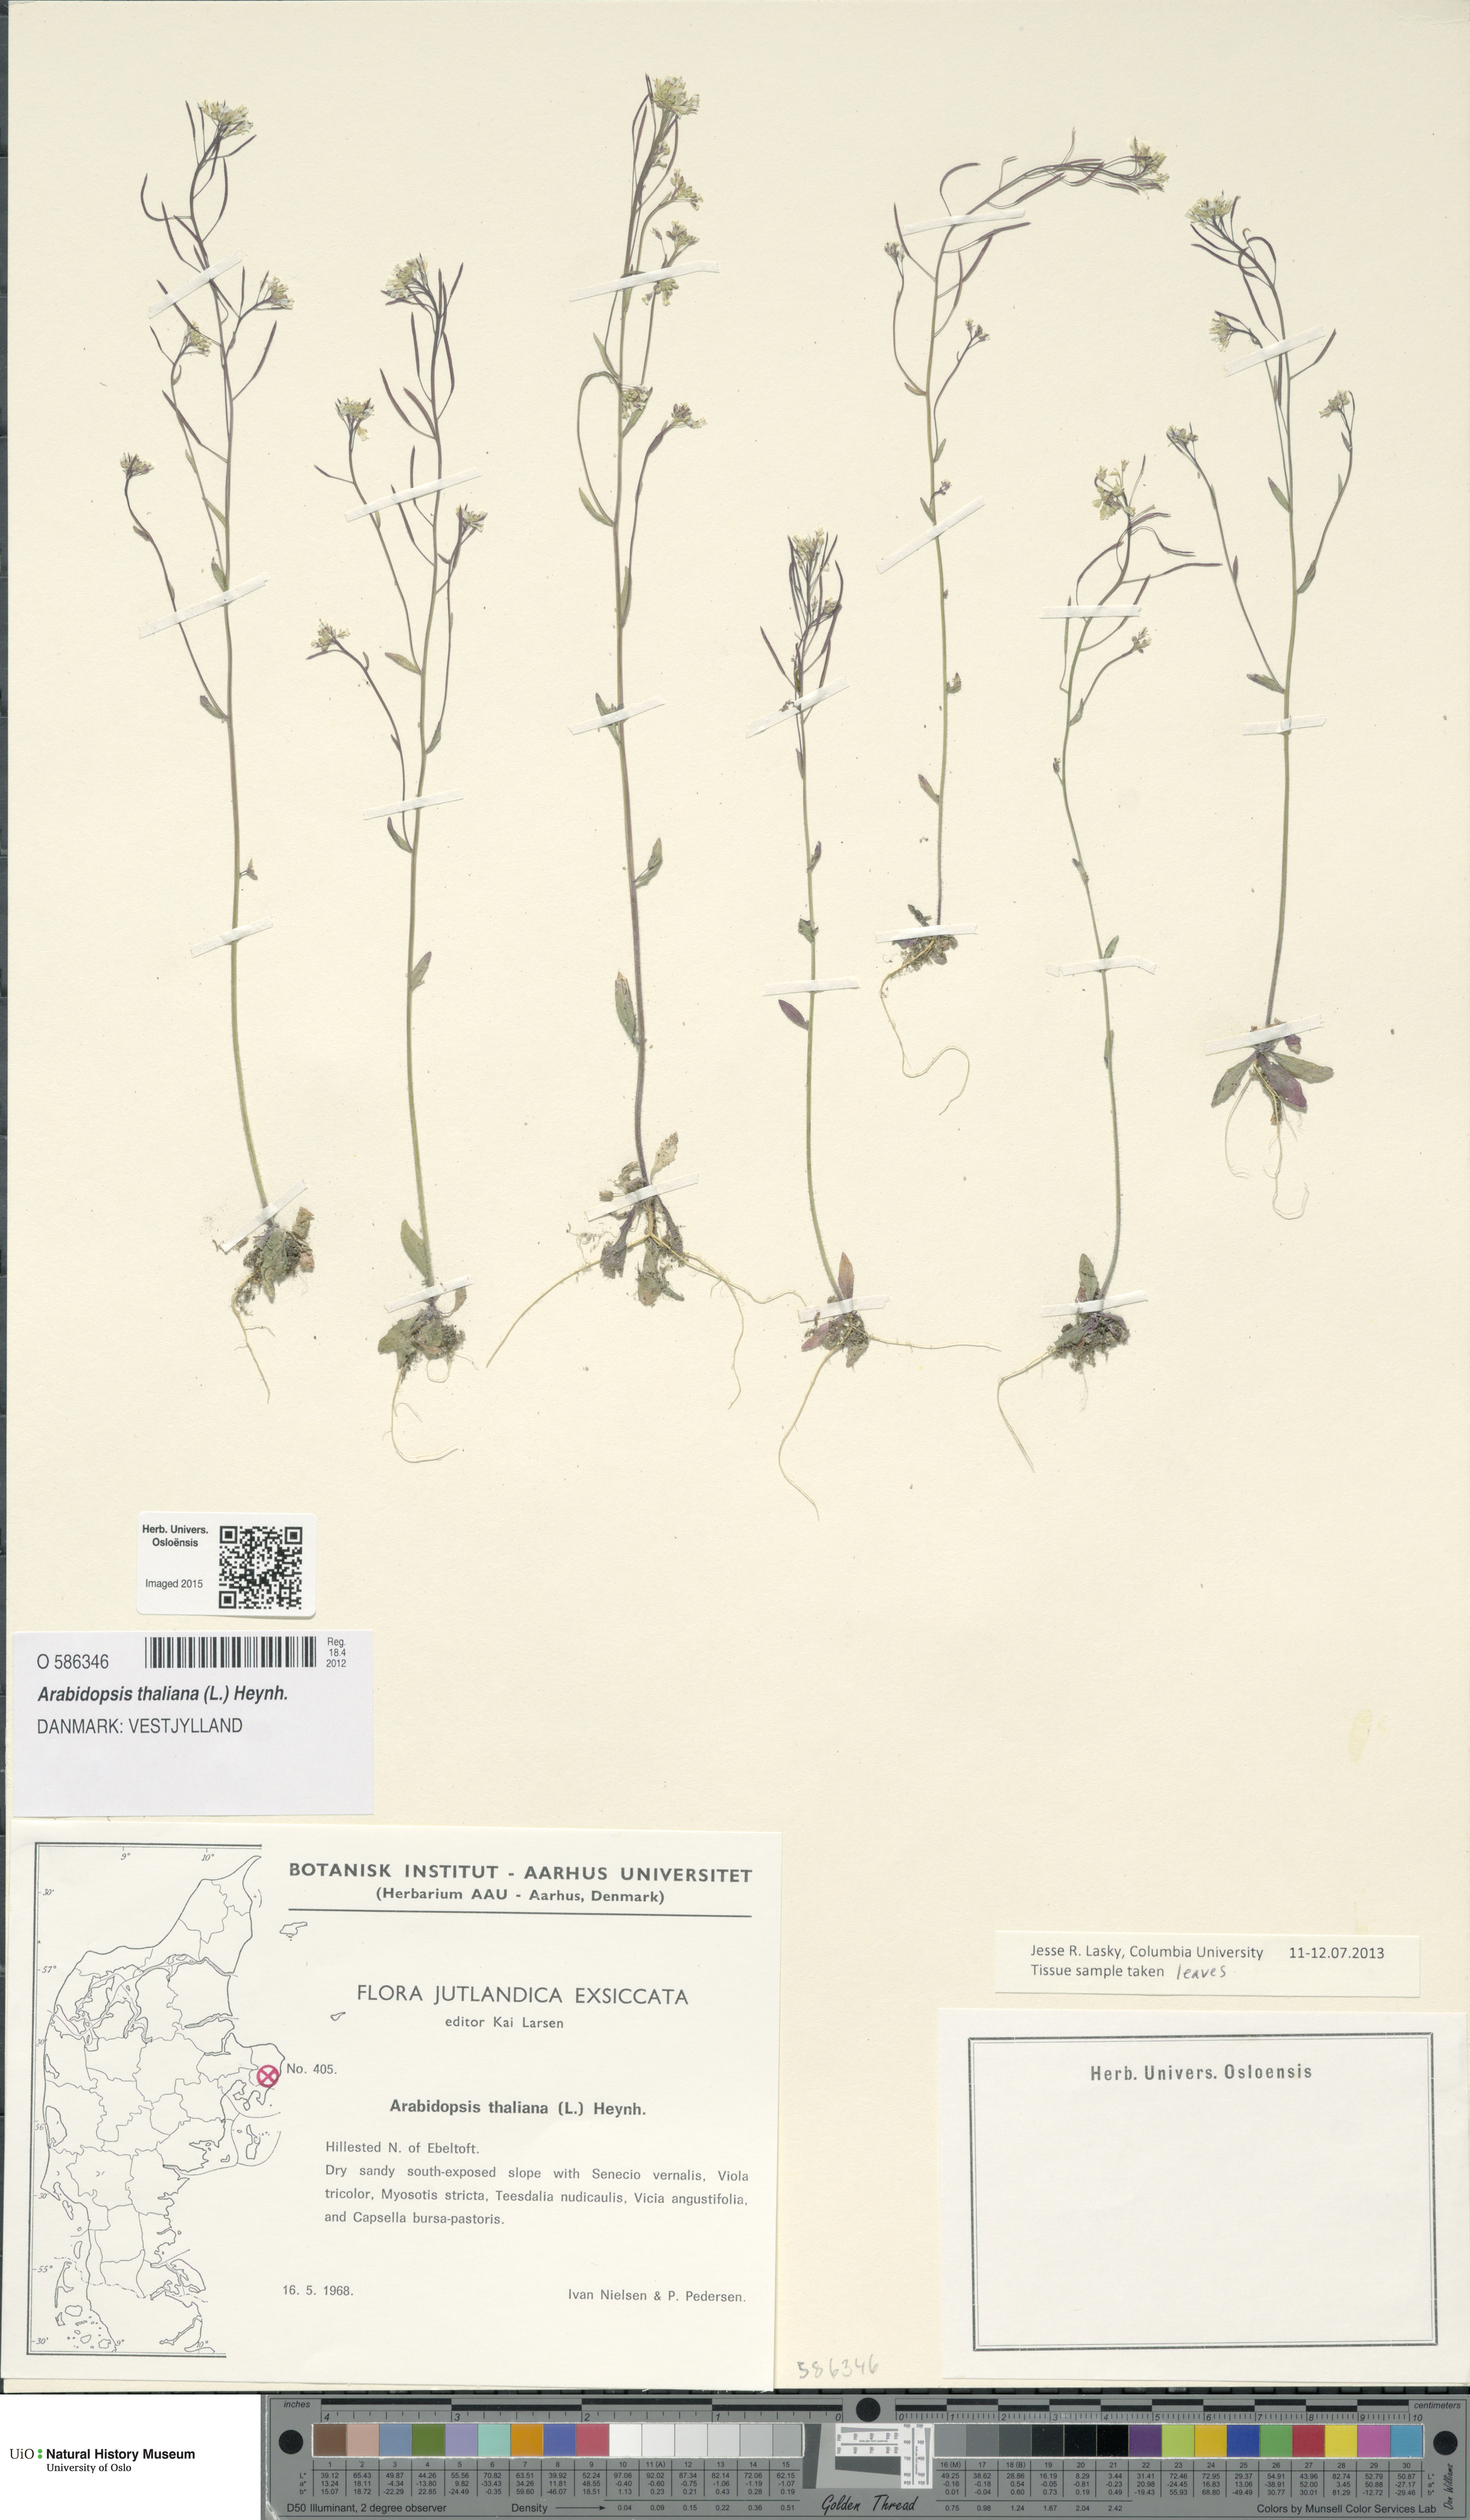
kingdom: Plantae
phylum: Tracheophyta
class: Magnoliopsida
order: Brassicales
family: Brassicaceae
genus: Arabidopsis
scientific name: Arabidopsis thaliana
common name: Thale cress
